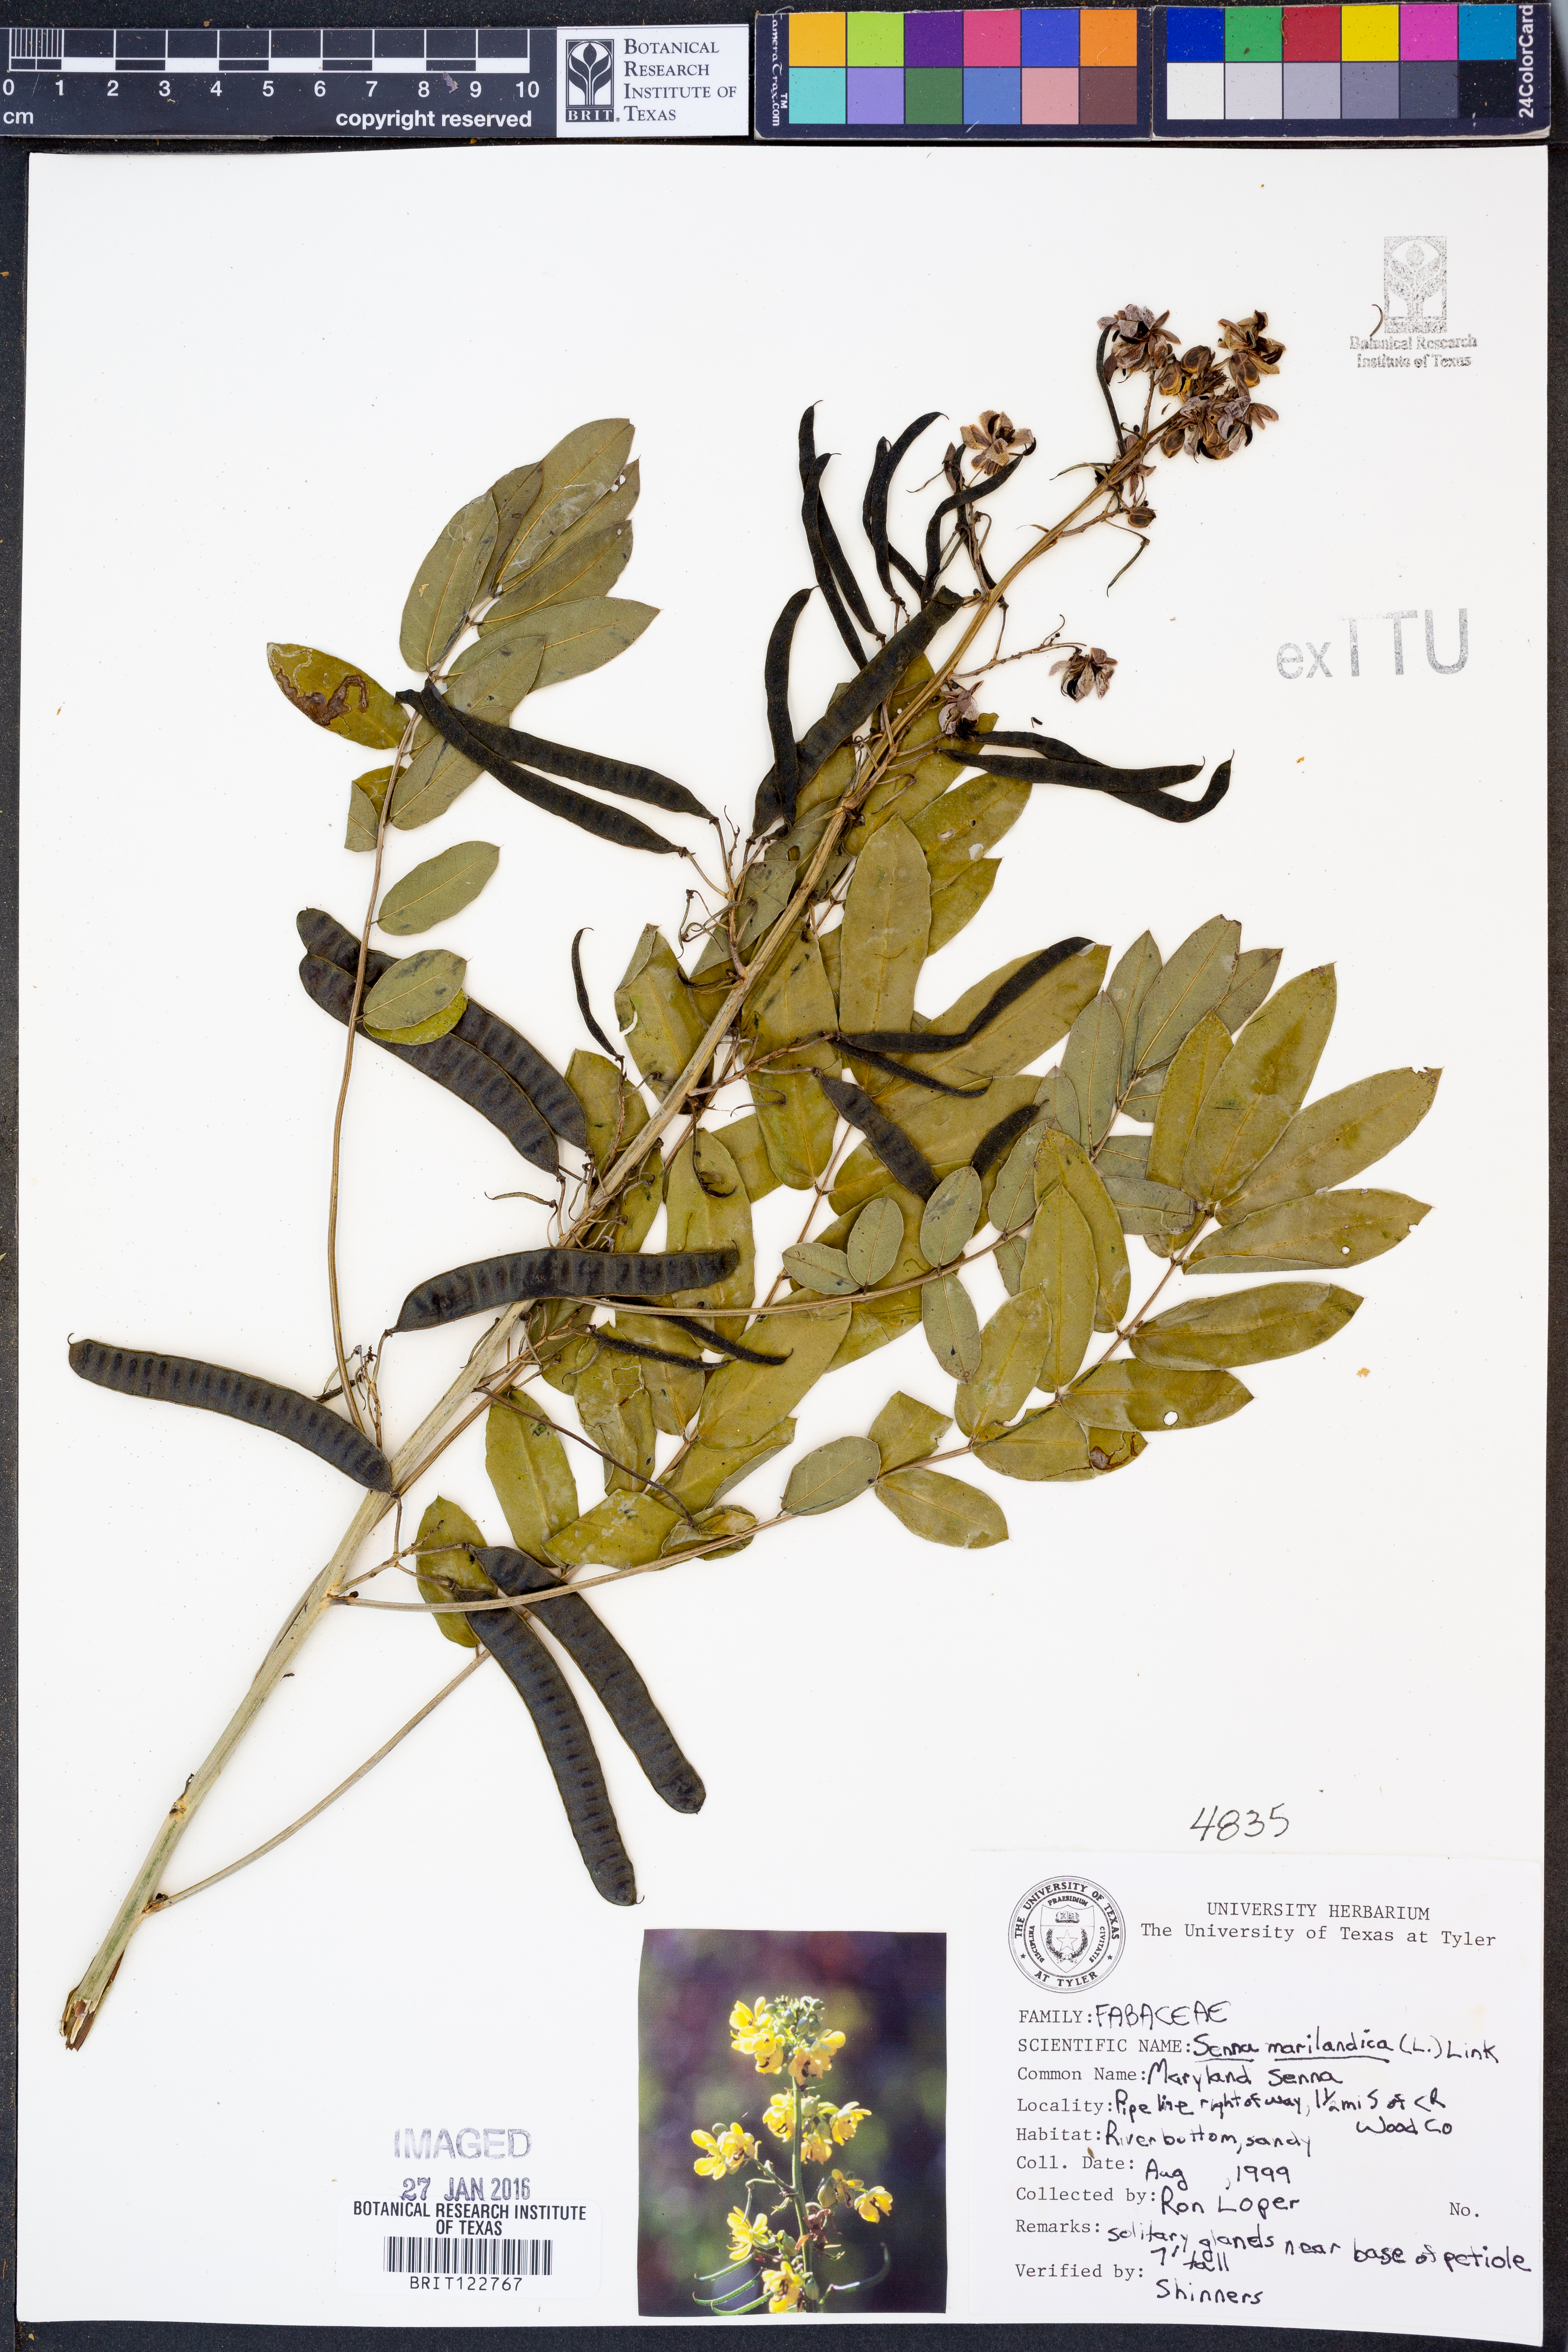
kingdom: Plantae
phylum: Tracheophyta
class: Magnoliopsida
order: Fabales
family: Fabaceae
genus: Senna
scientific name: Senna marilandica
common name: American senna
